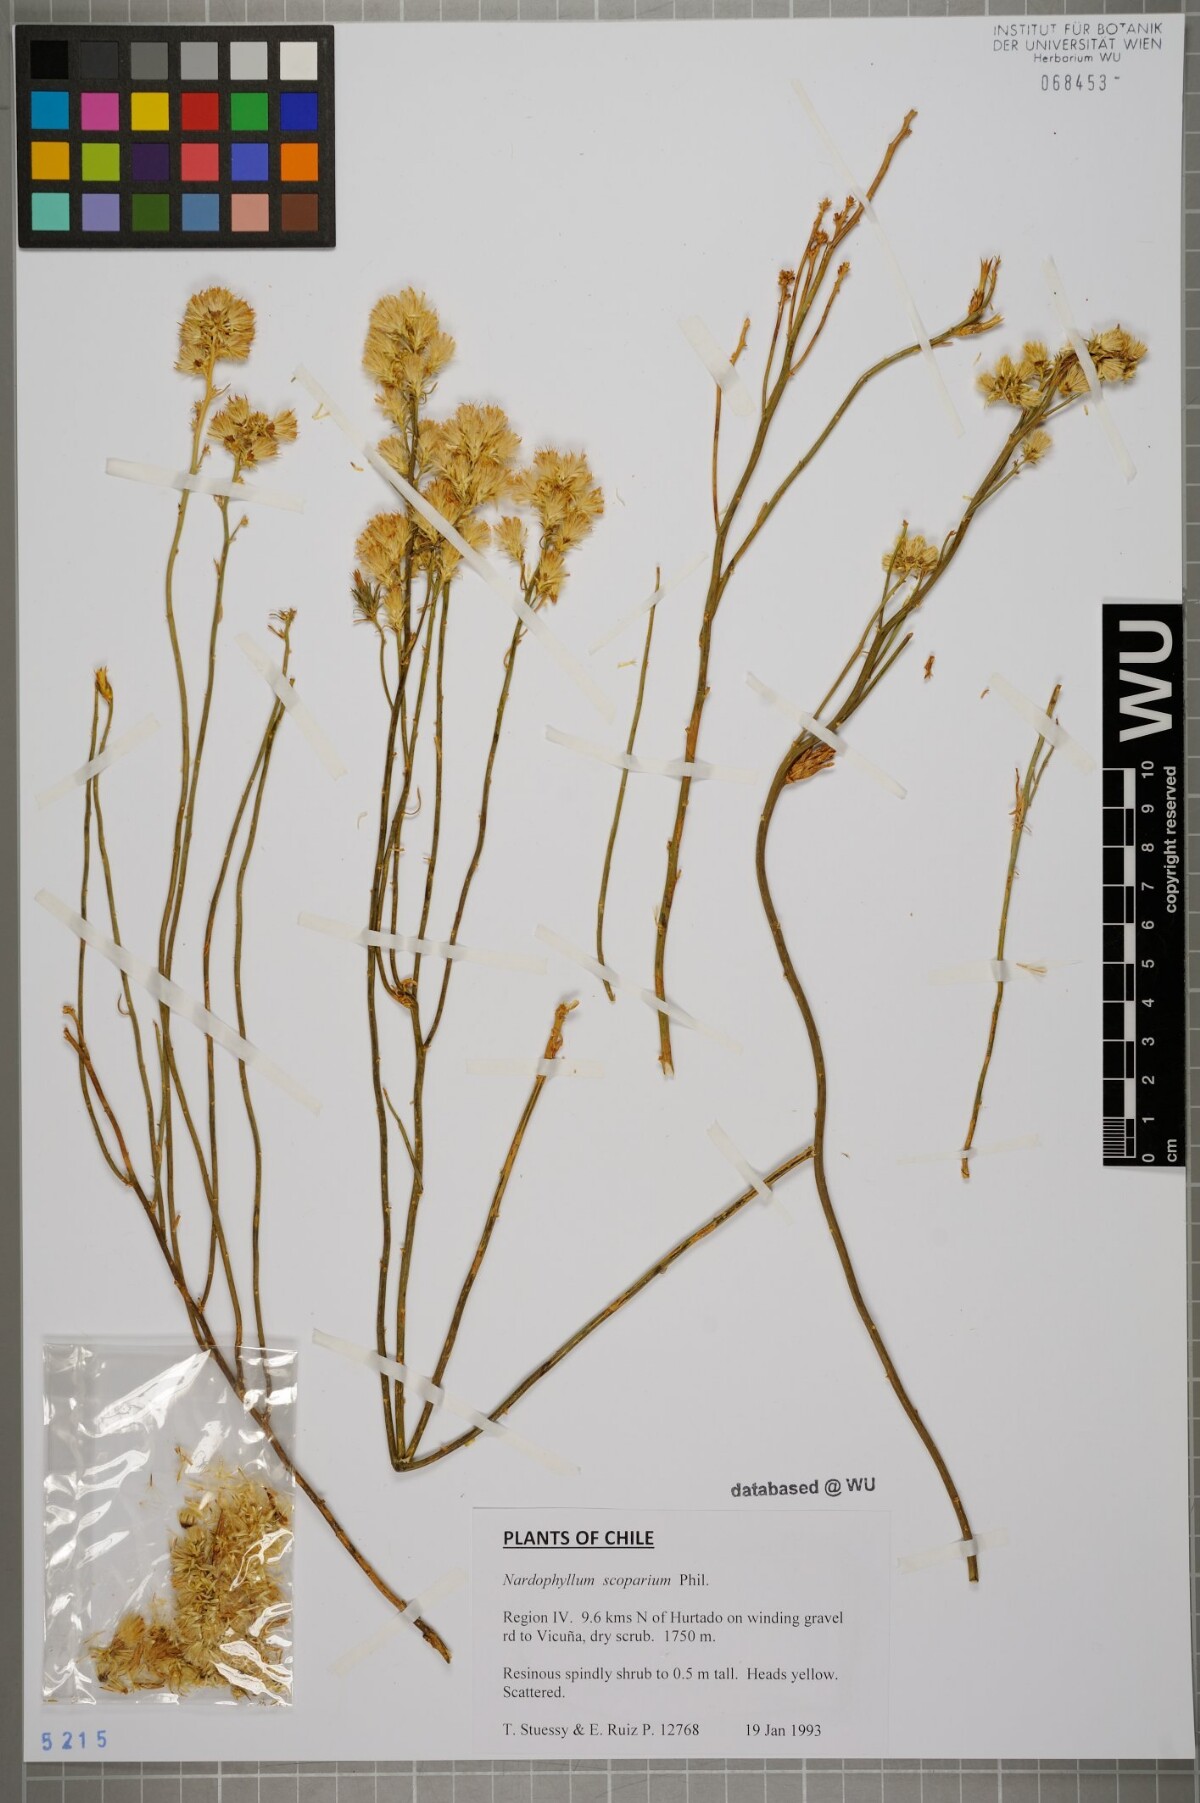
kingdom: Plantae
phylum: Tracheophyta
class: Magnoliopsida
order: Asterales
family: Asteraceae
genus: Nardophyllum
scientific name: Nardophyllum
